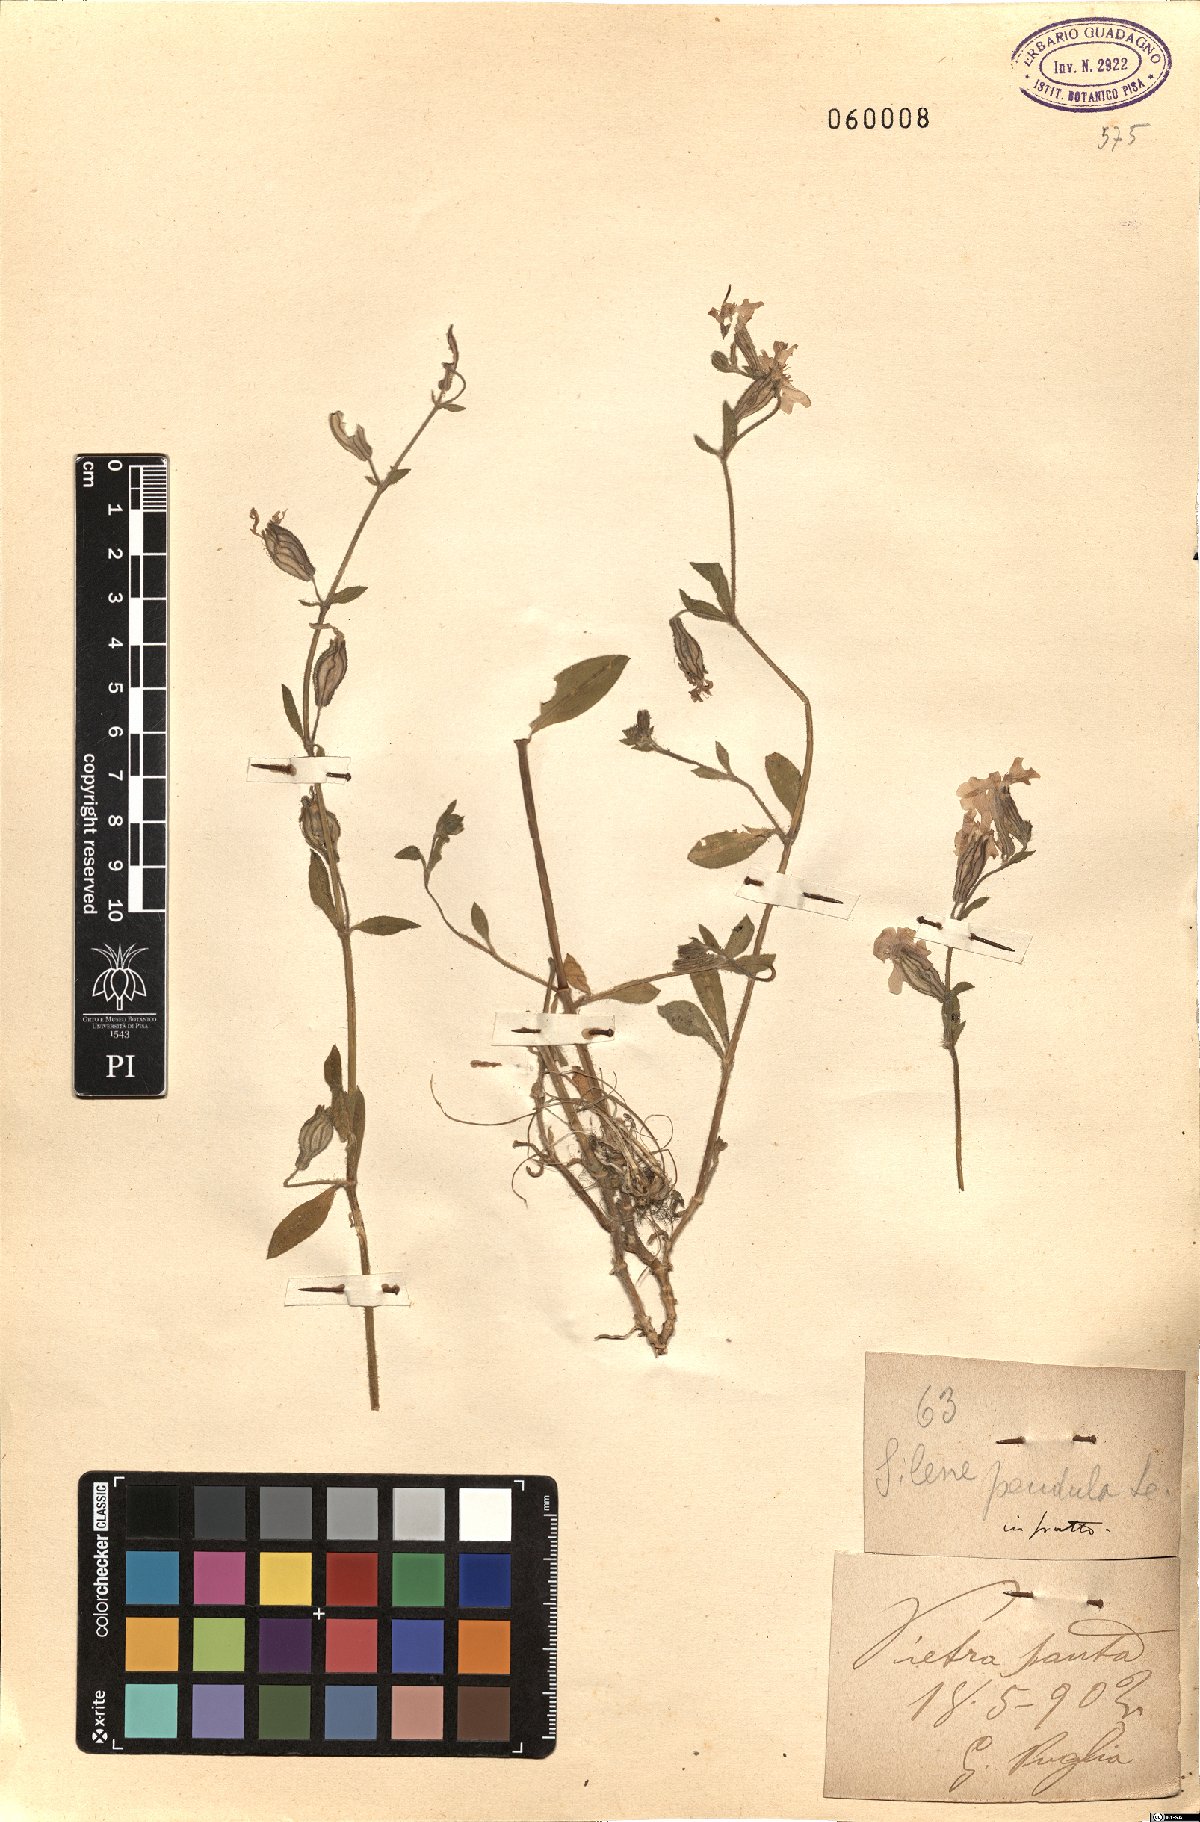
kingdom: Plantae
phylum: Tracheophyta
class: Magnoliopsida
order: Caryophyllales
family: Caryophyllaceae
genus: Silene
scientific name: Silene pendula
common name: Nodding catchfly
